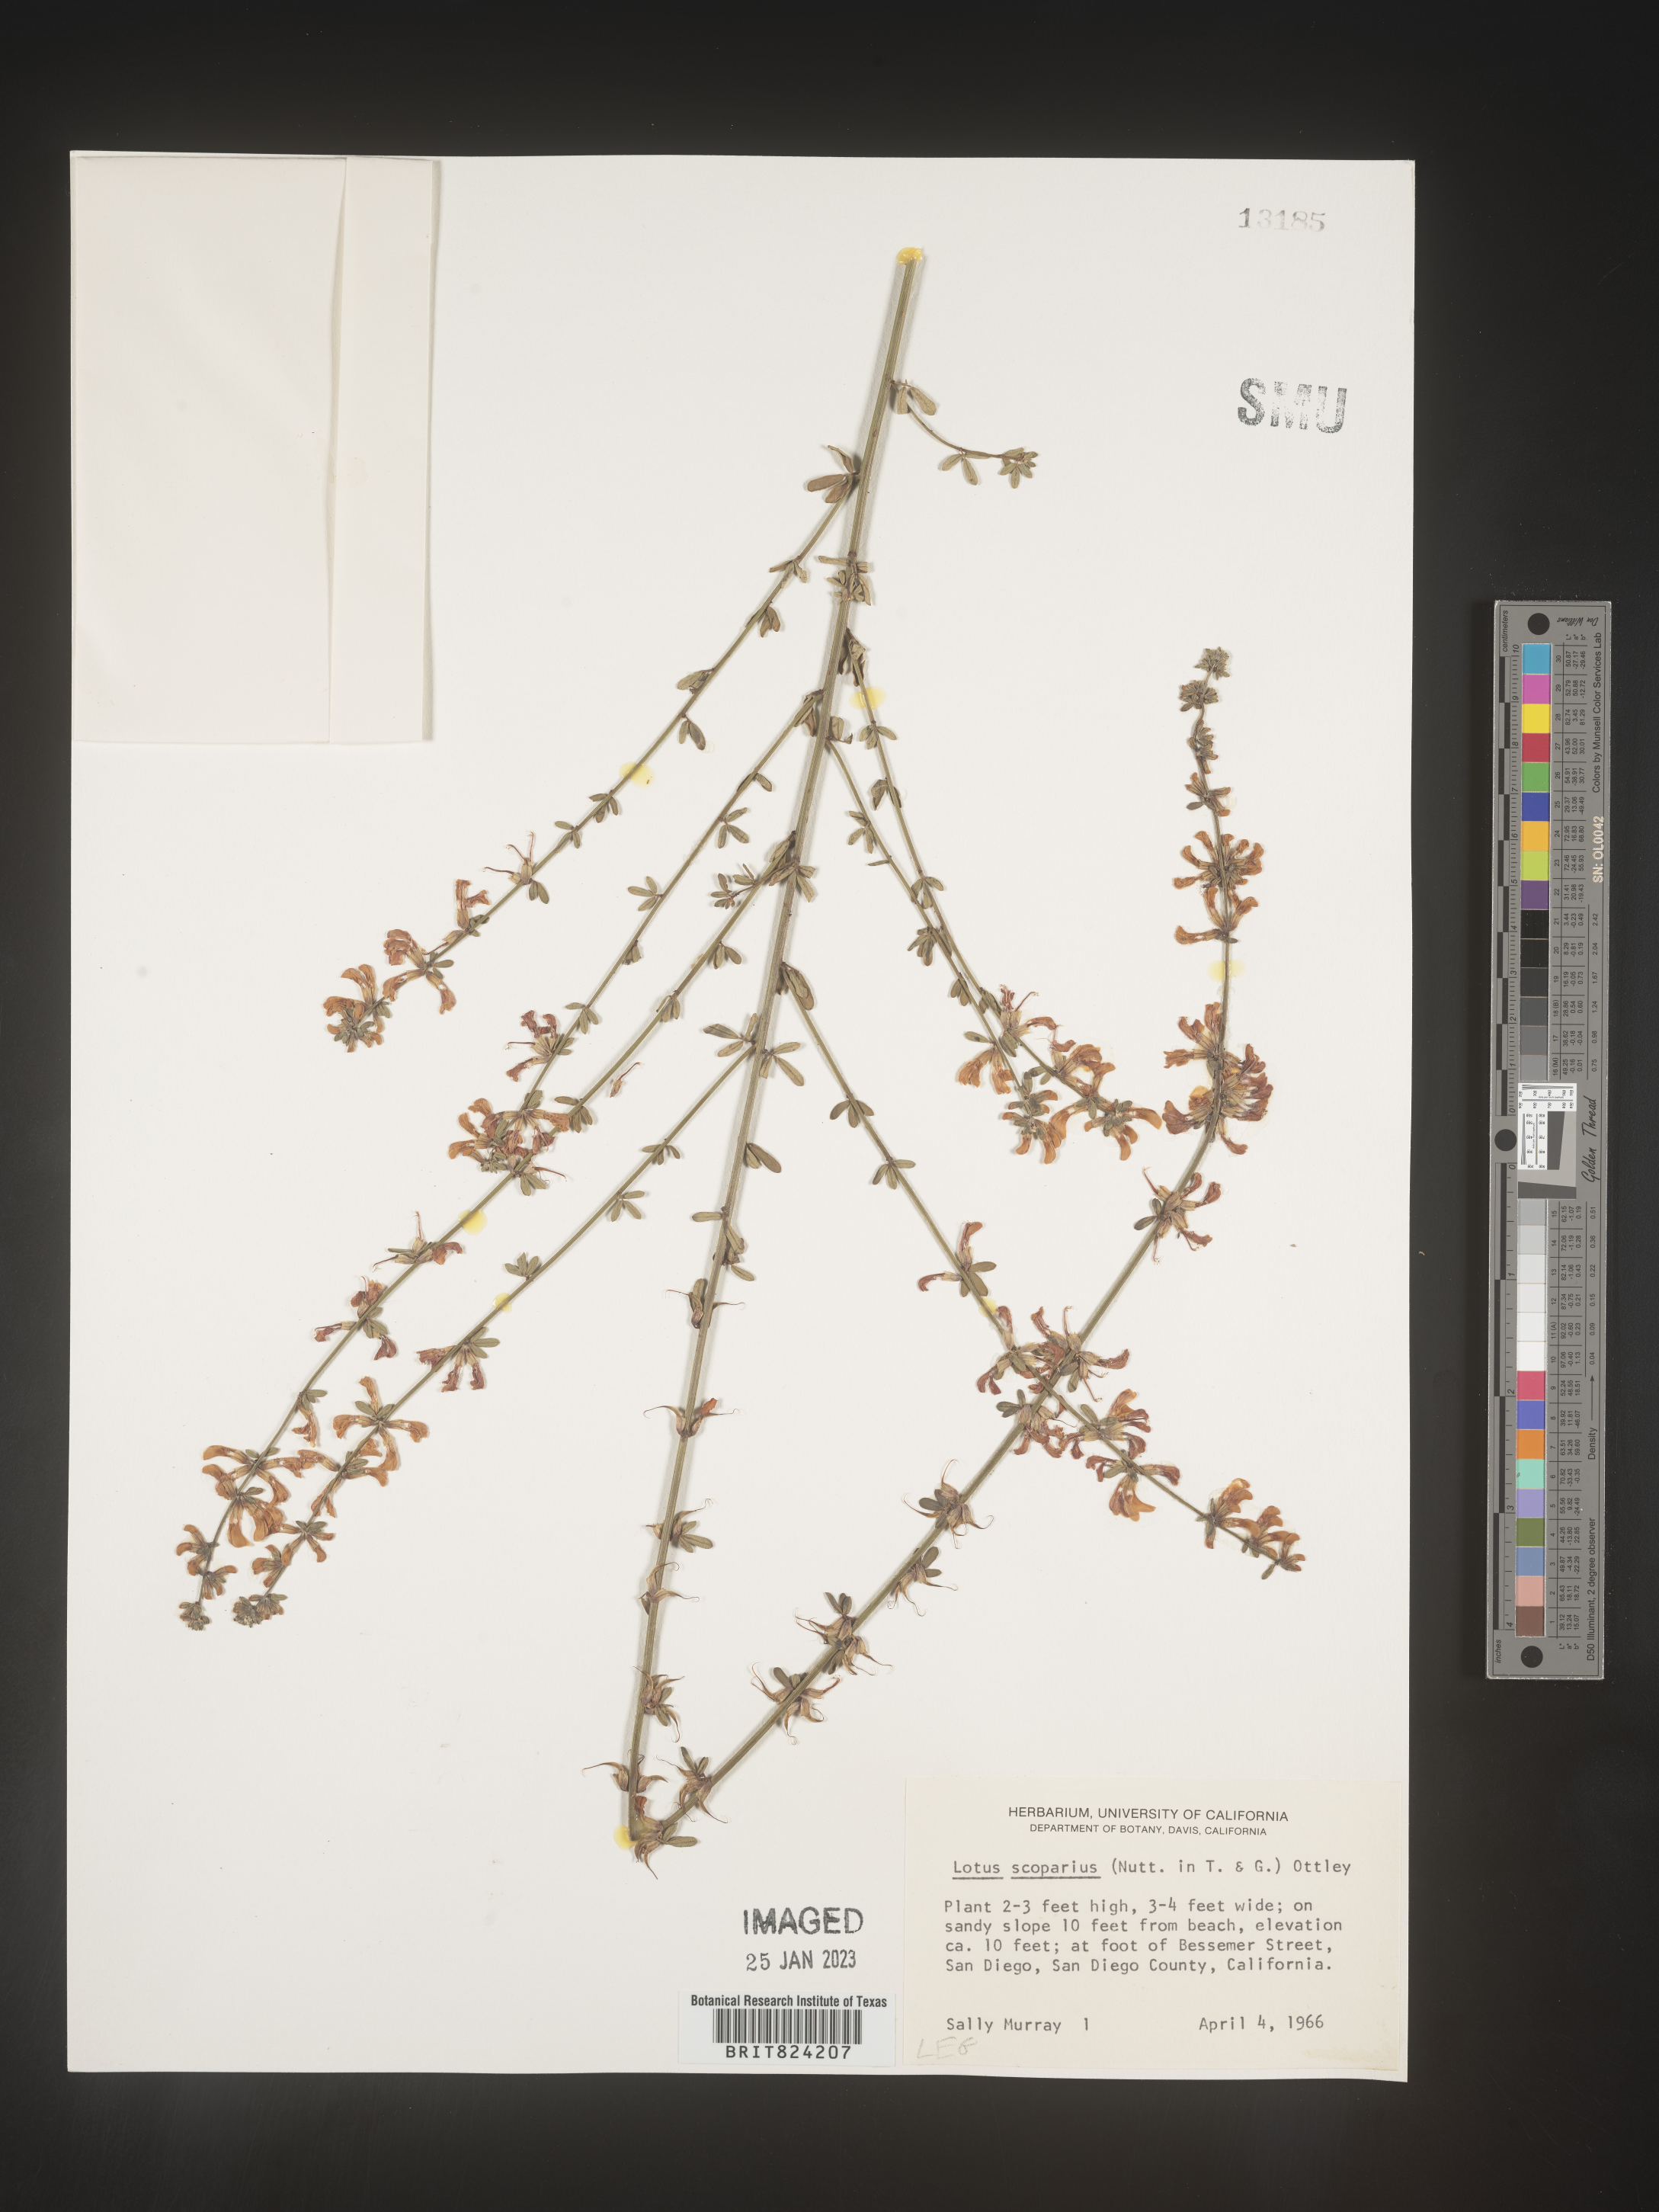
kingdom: Plantae
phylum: Tracheophyta
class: Magnoliopsida
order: Fabales
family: Fabaceae
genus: Lotus
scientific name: Lotus
